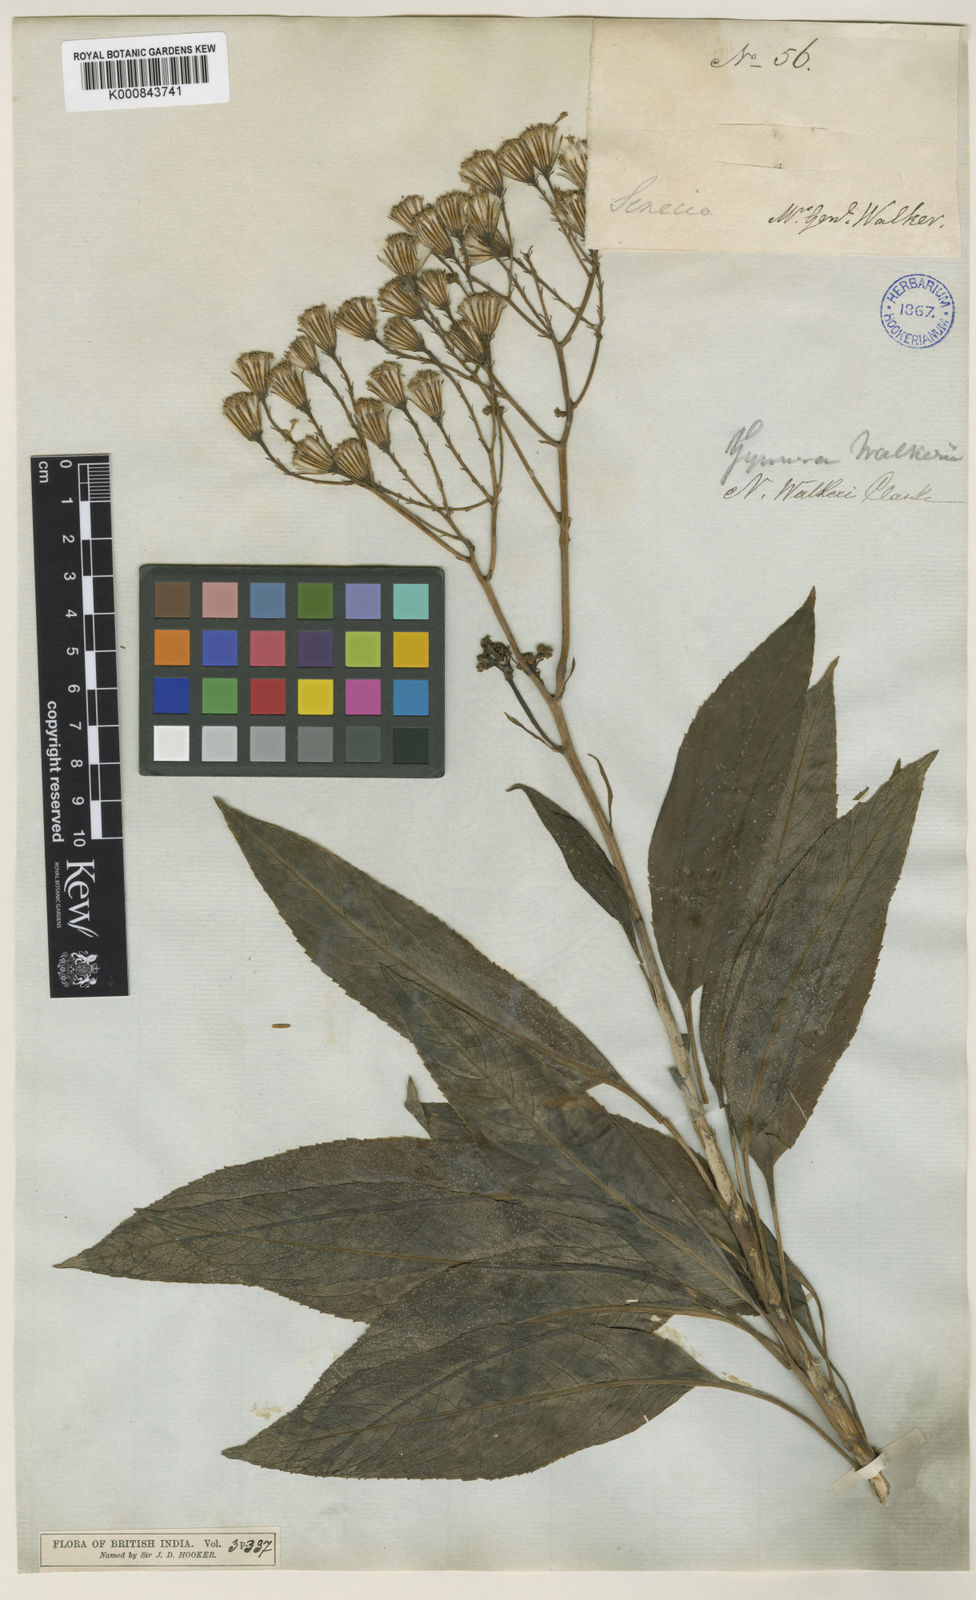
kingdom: Plantae
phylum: Tracheophyta
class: Magnoliopsida
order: Asterales
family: Asteraceae
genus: Kleinia
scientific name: Kleinia
